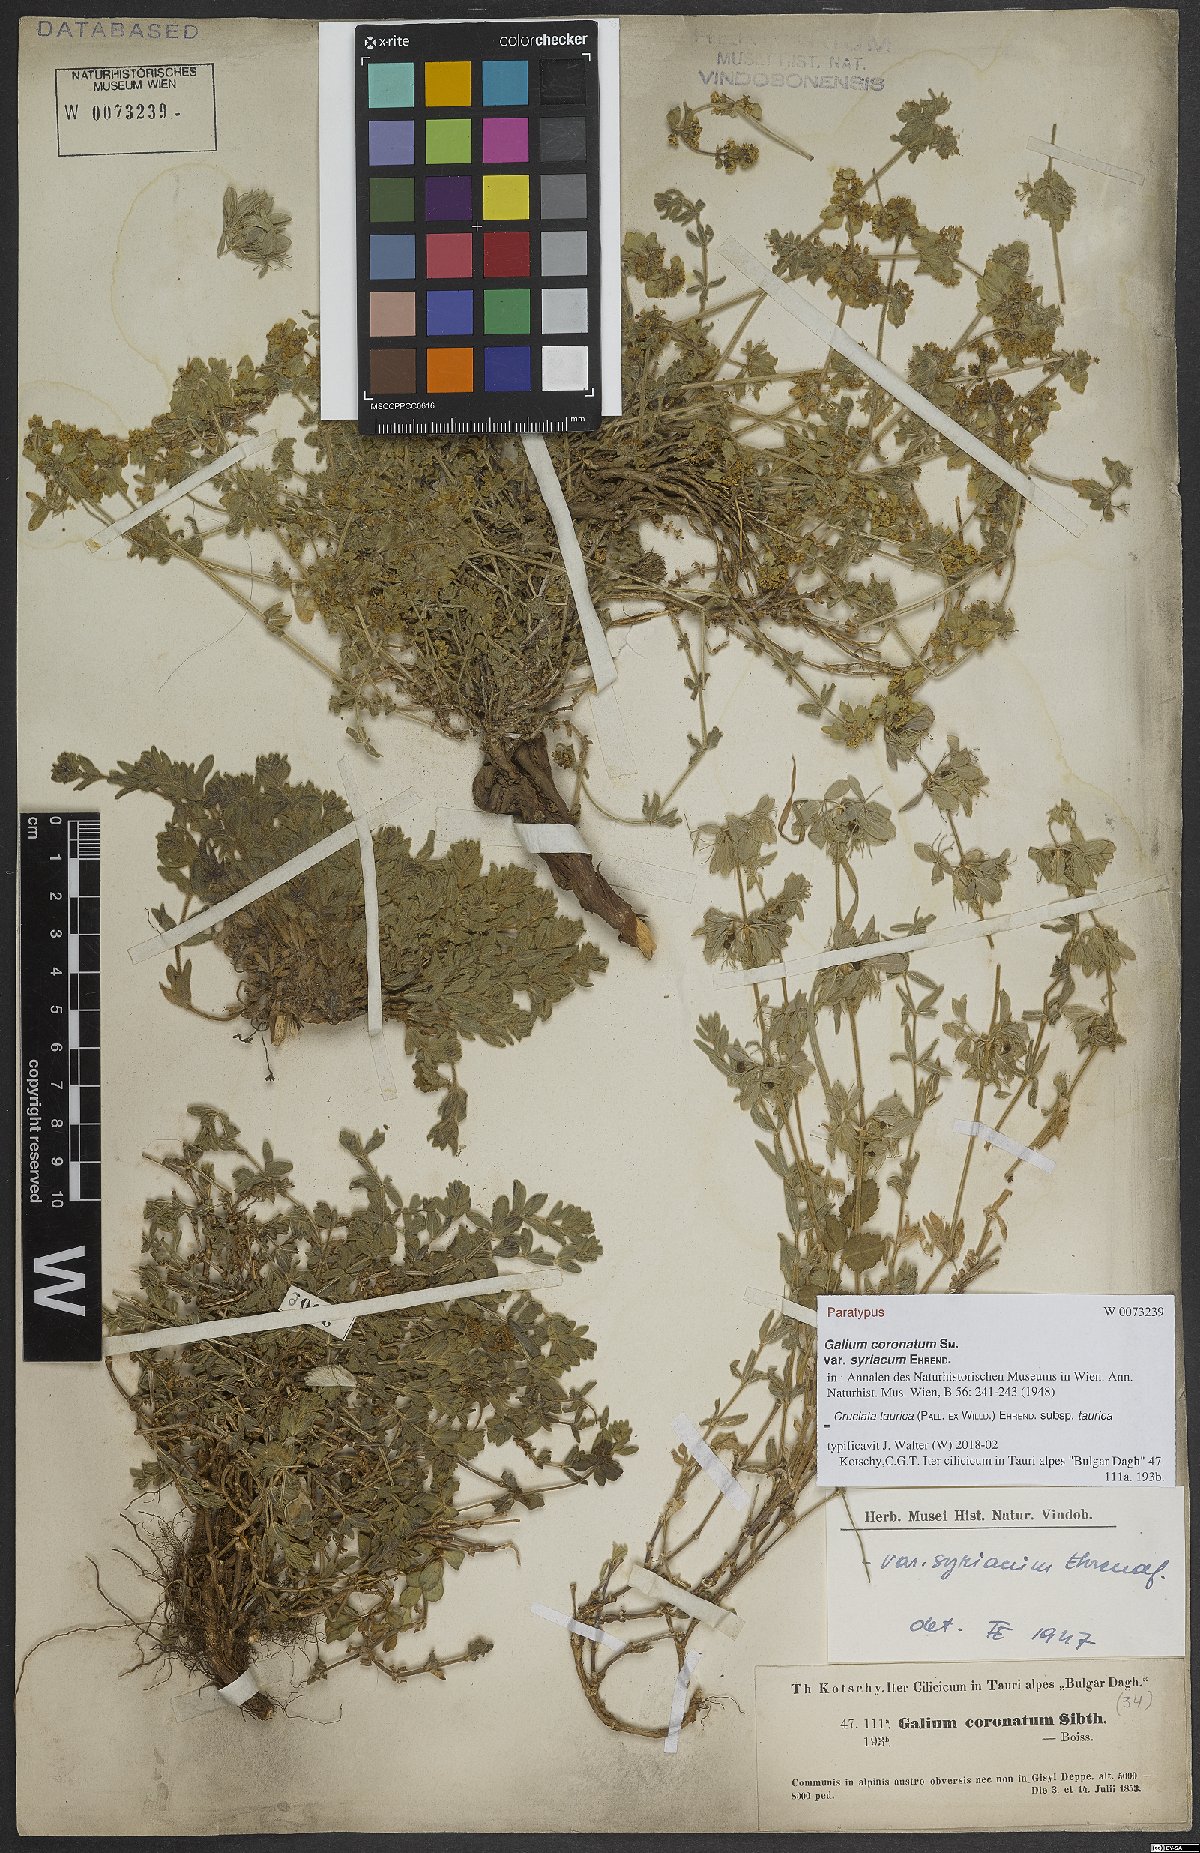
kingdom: Plantae
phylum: Tracheophyta
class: Magnoliopsida
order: Gentianales
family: Rubiaceae
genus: Cruciata
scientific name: Cruciata taurica
